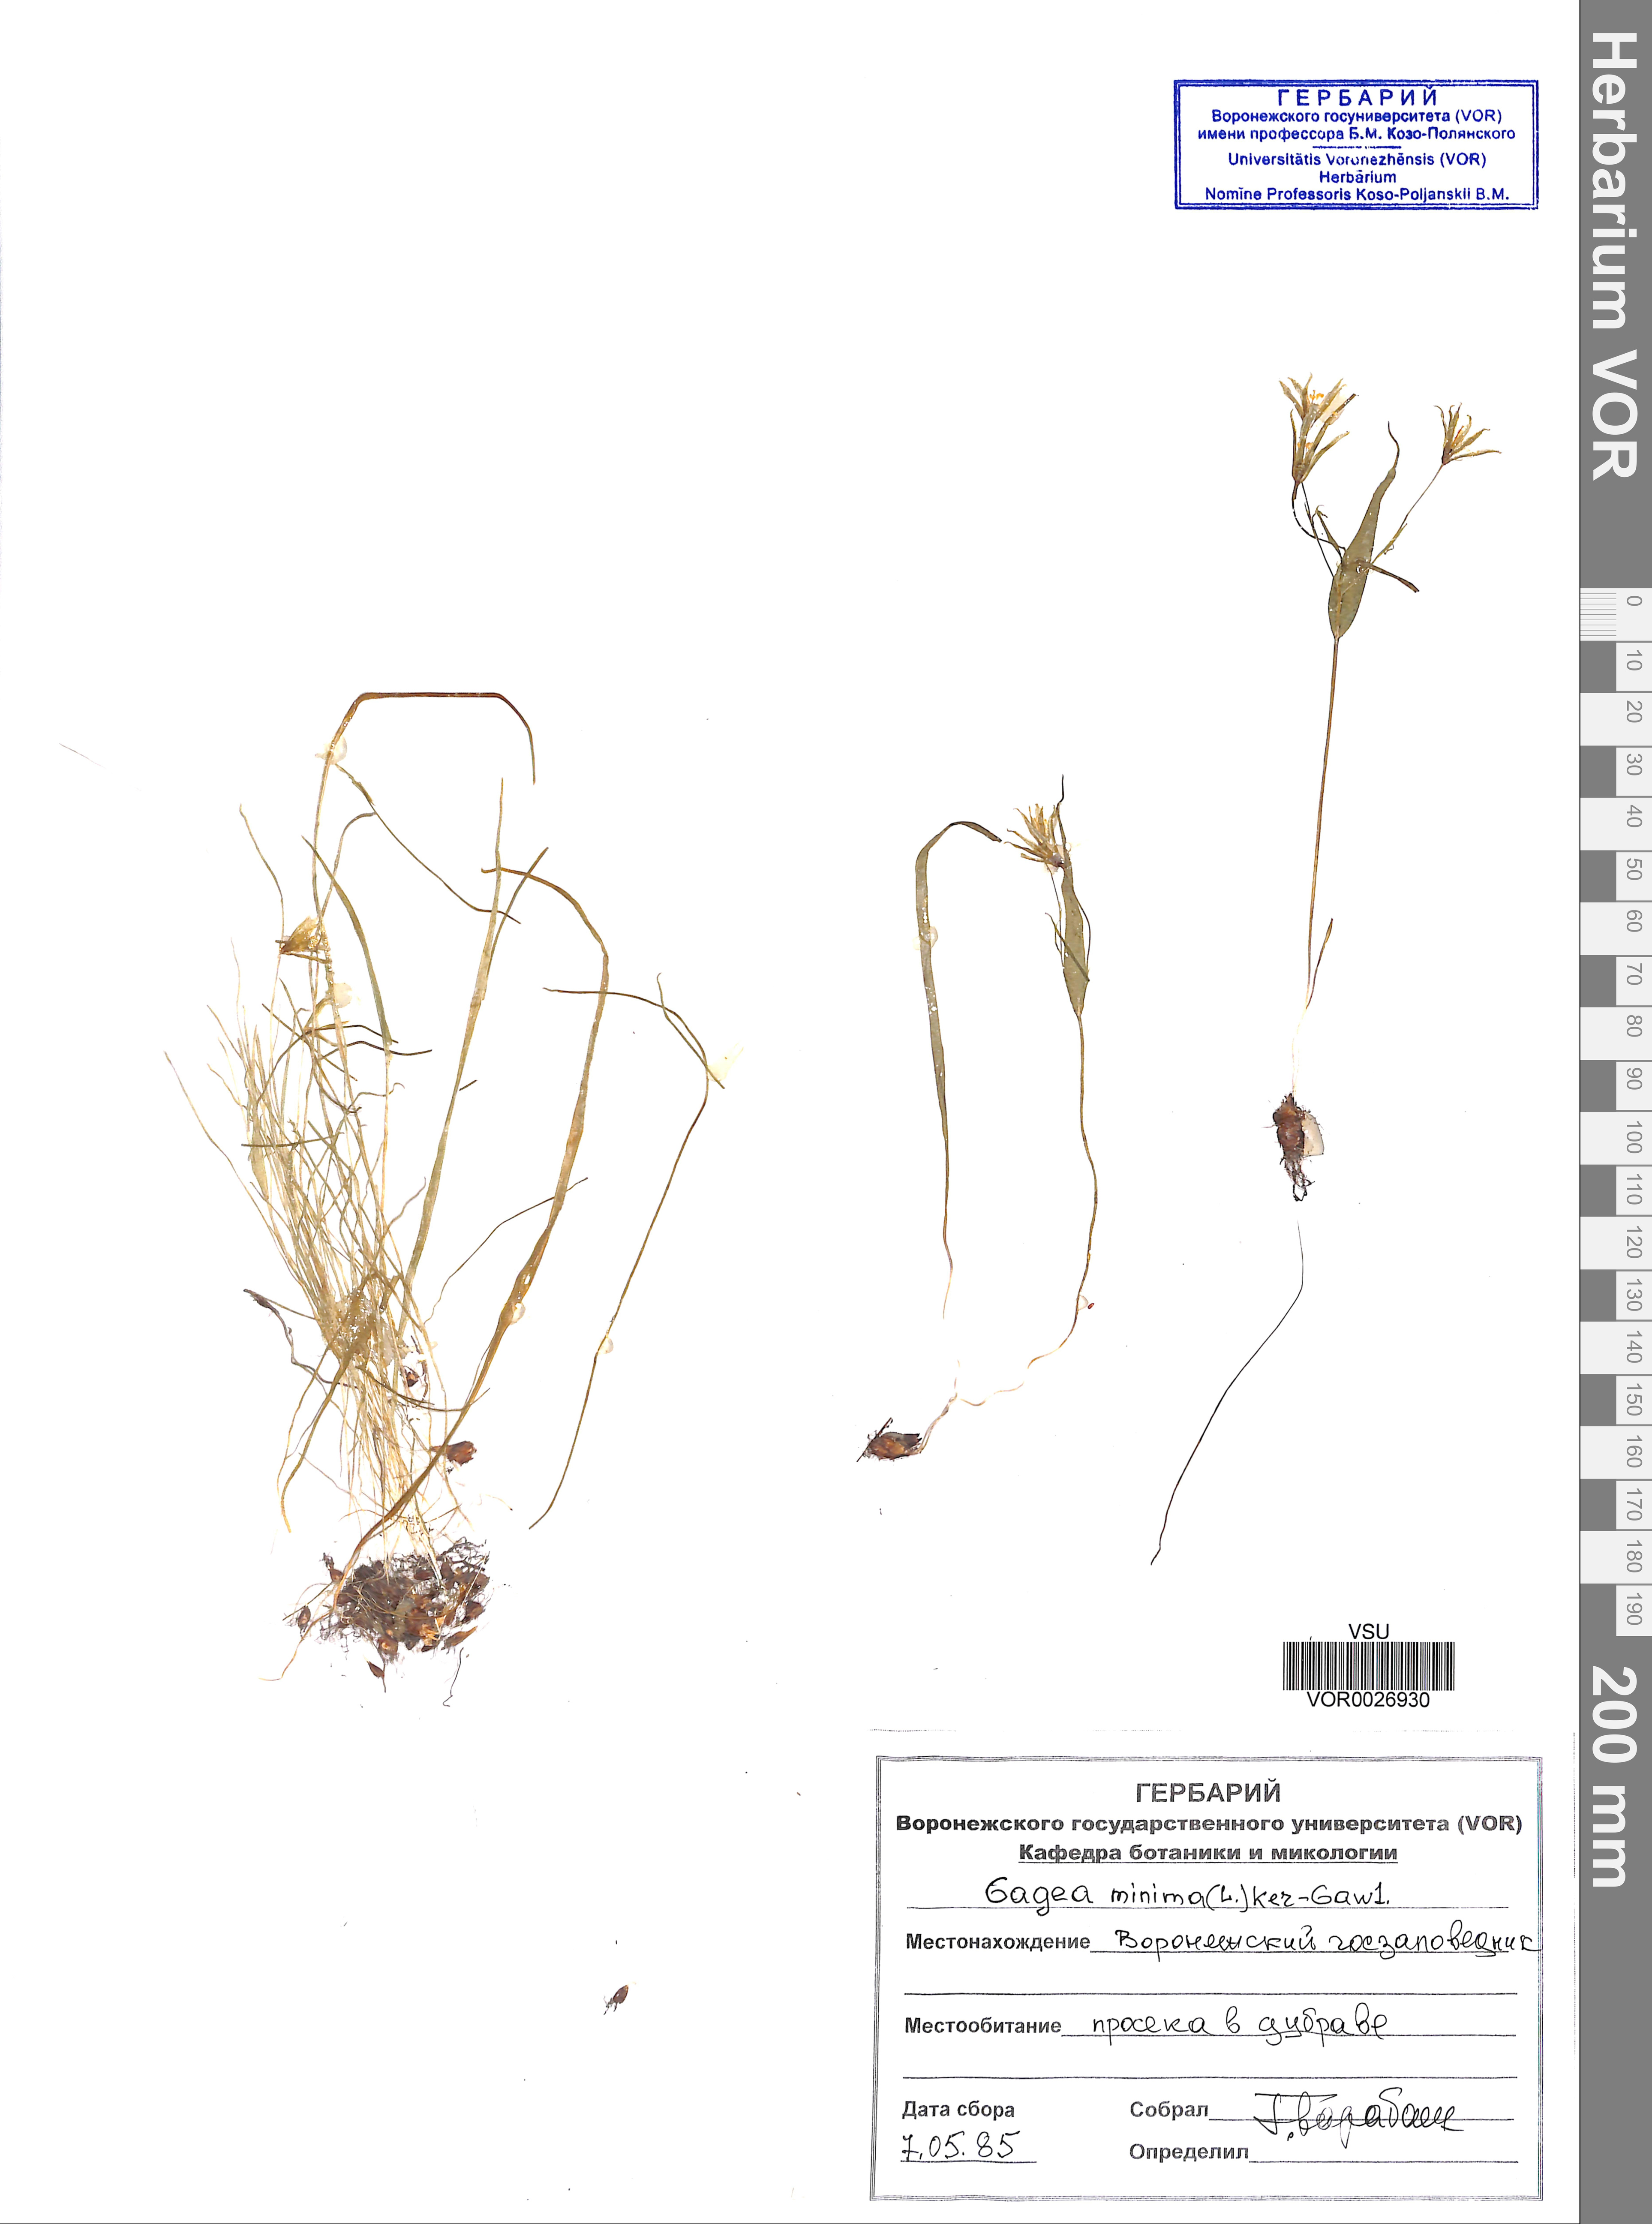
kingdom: Plantae
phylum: Tracheophyta
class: Liliopsida
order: Liliales
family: Liliaceae
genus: Gagea
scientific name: Gagea minima
